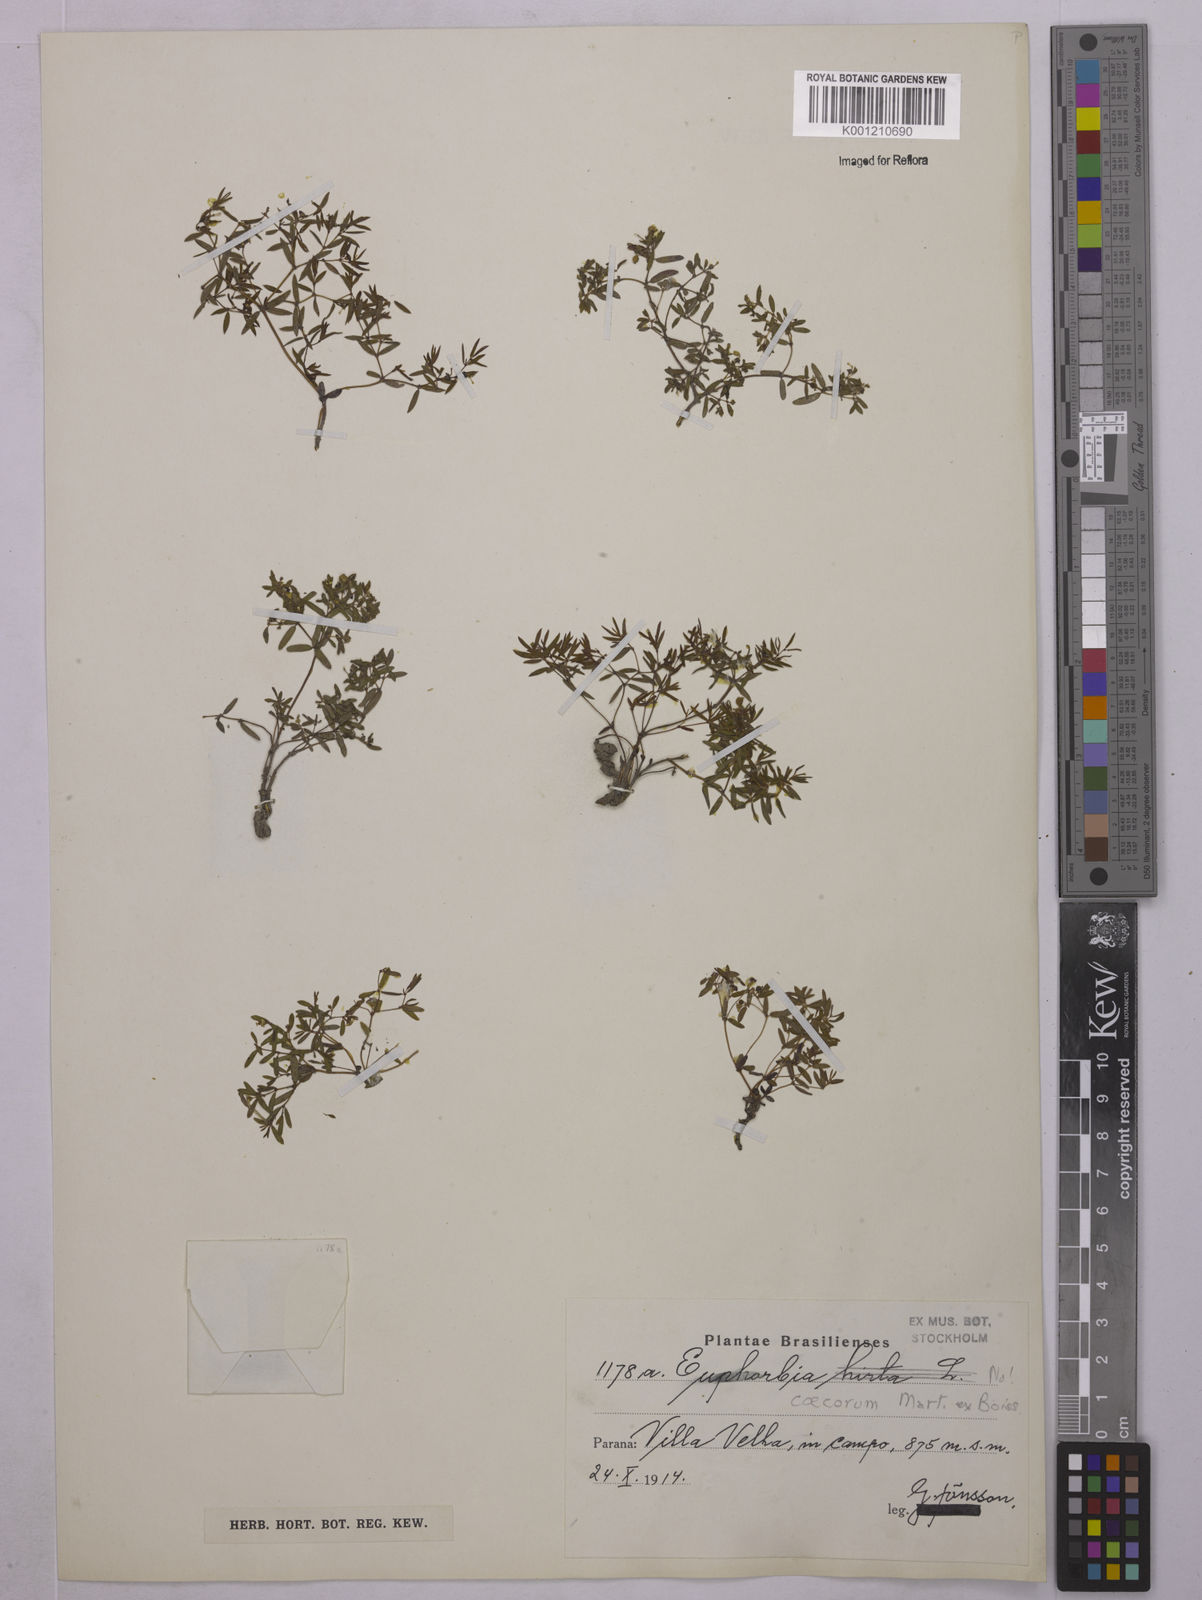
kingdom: Plantae
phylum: Tracheophyta
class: Magnoliopsida
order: Malpighiales
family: Euphorbiaceae
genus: Euphorbia
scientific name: Euphorbia potentilloides
